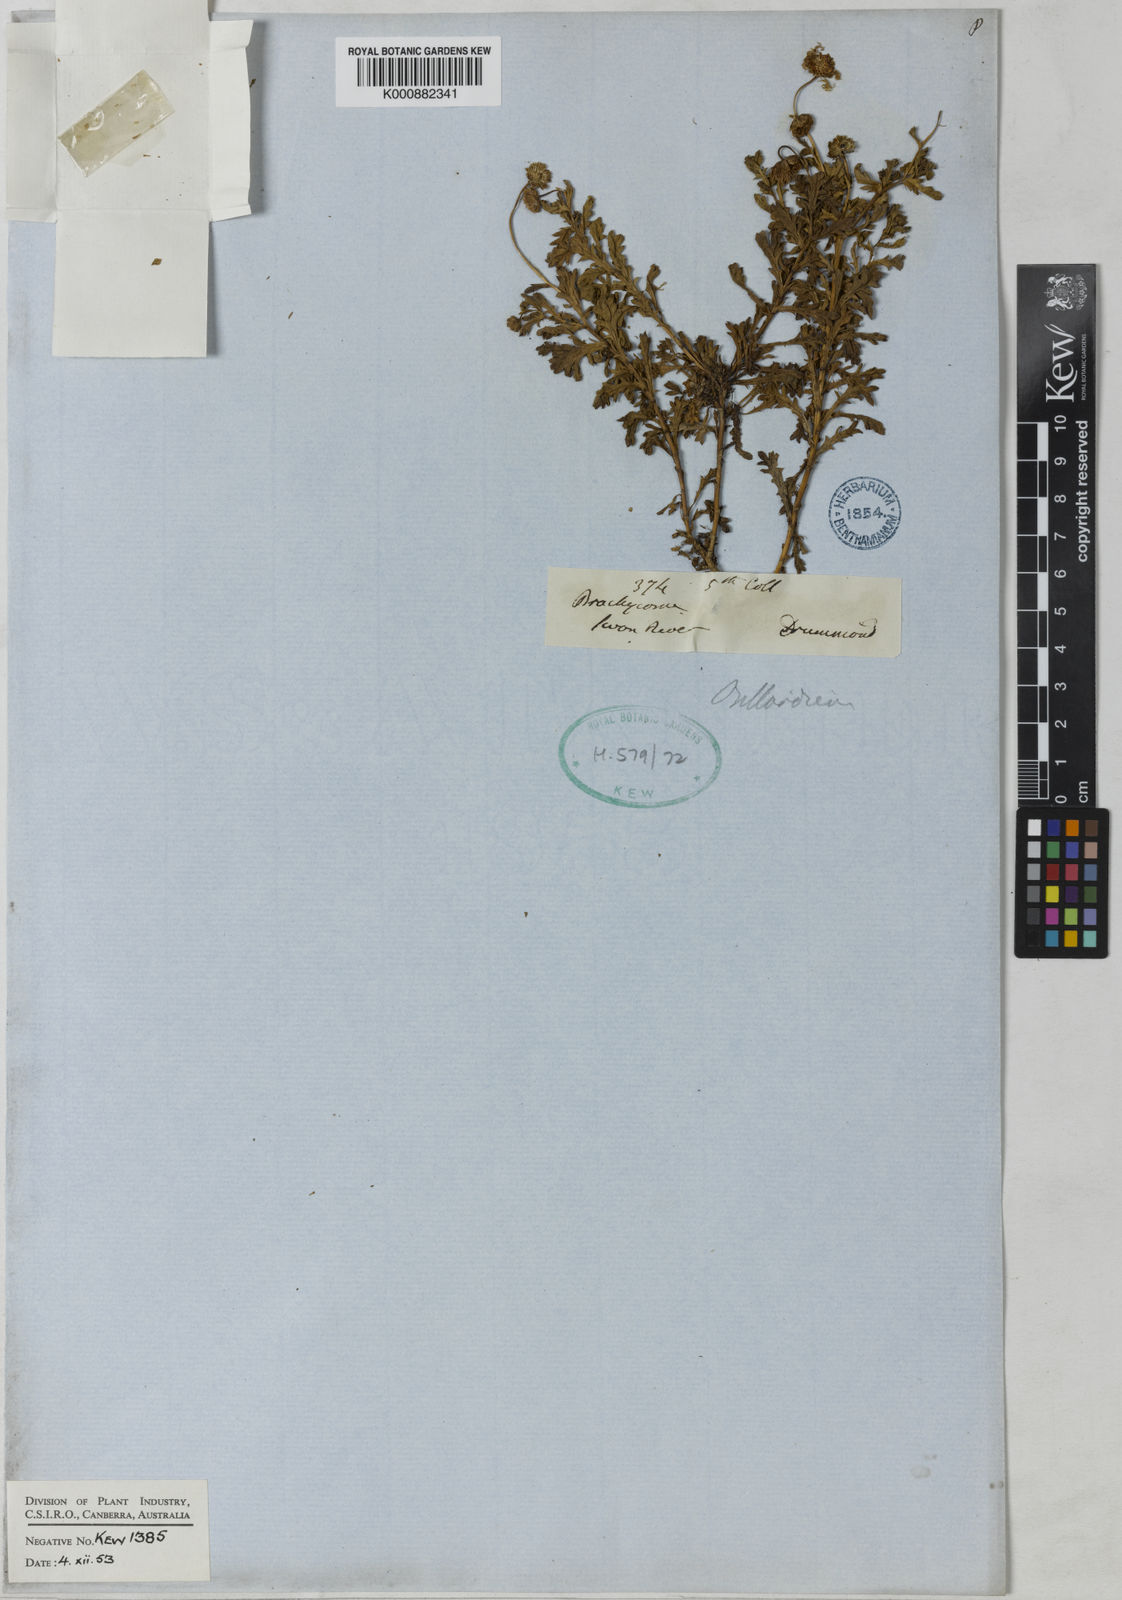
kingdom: Plantae
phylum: Tracheophyta
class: Magnoliopsida
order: Asterales
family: Asteraceae
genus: Brachyscome
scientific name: Brachyscome ciliaris
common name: Variable daisy
